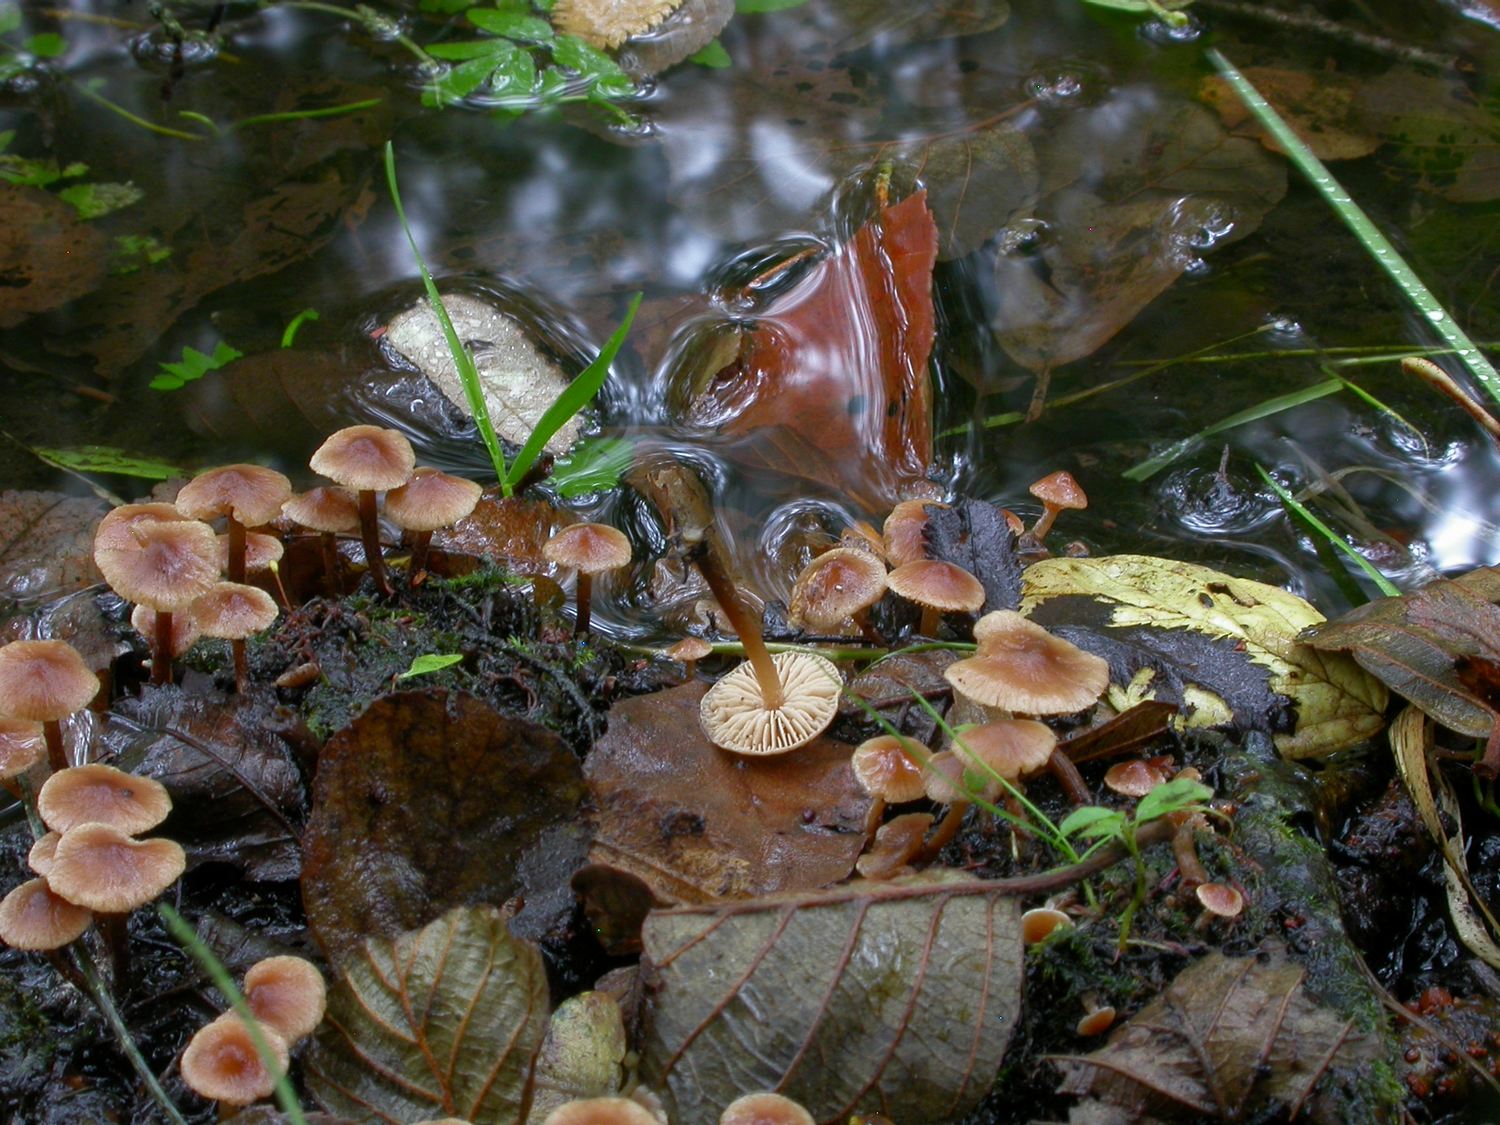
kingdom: Fungi
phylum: Basidiomycota
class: Agaricomycetes
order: Agaricales
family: Hymenogastraceae
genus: Naucoria
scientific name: Naucoria
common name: knaphat
